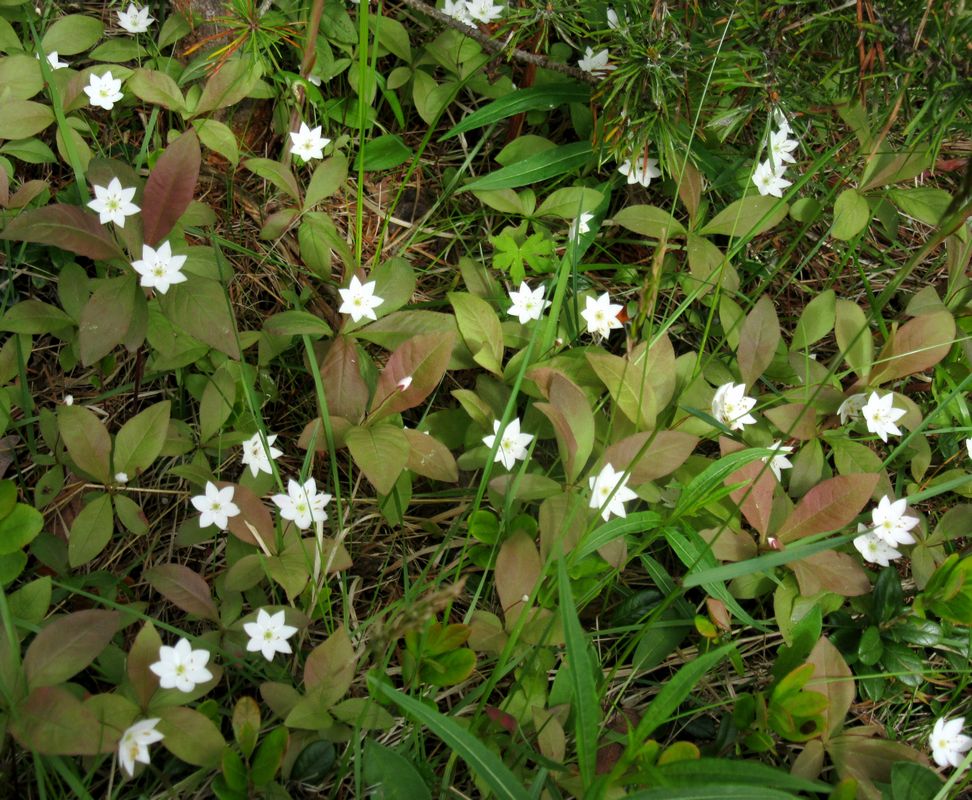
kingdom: Plantae
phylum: Tracheophyta
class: Magnoliopsida
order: Ericales
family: Primulaceae
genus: Lysimachia
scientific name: Lysimachia europaea
